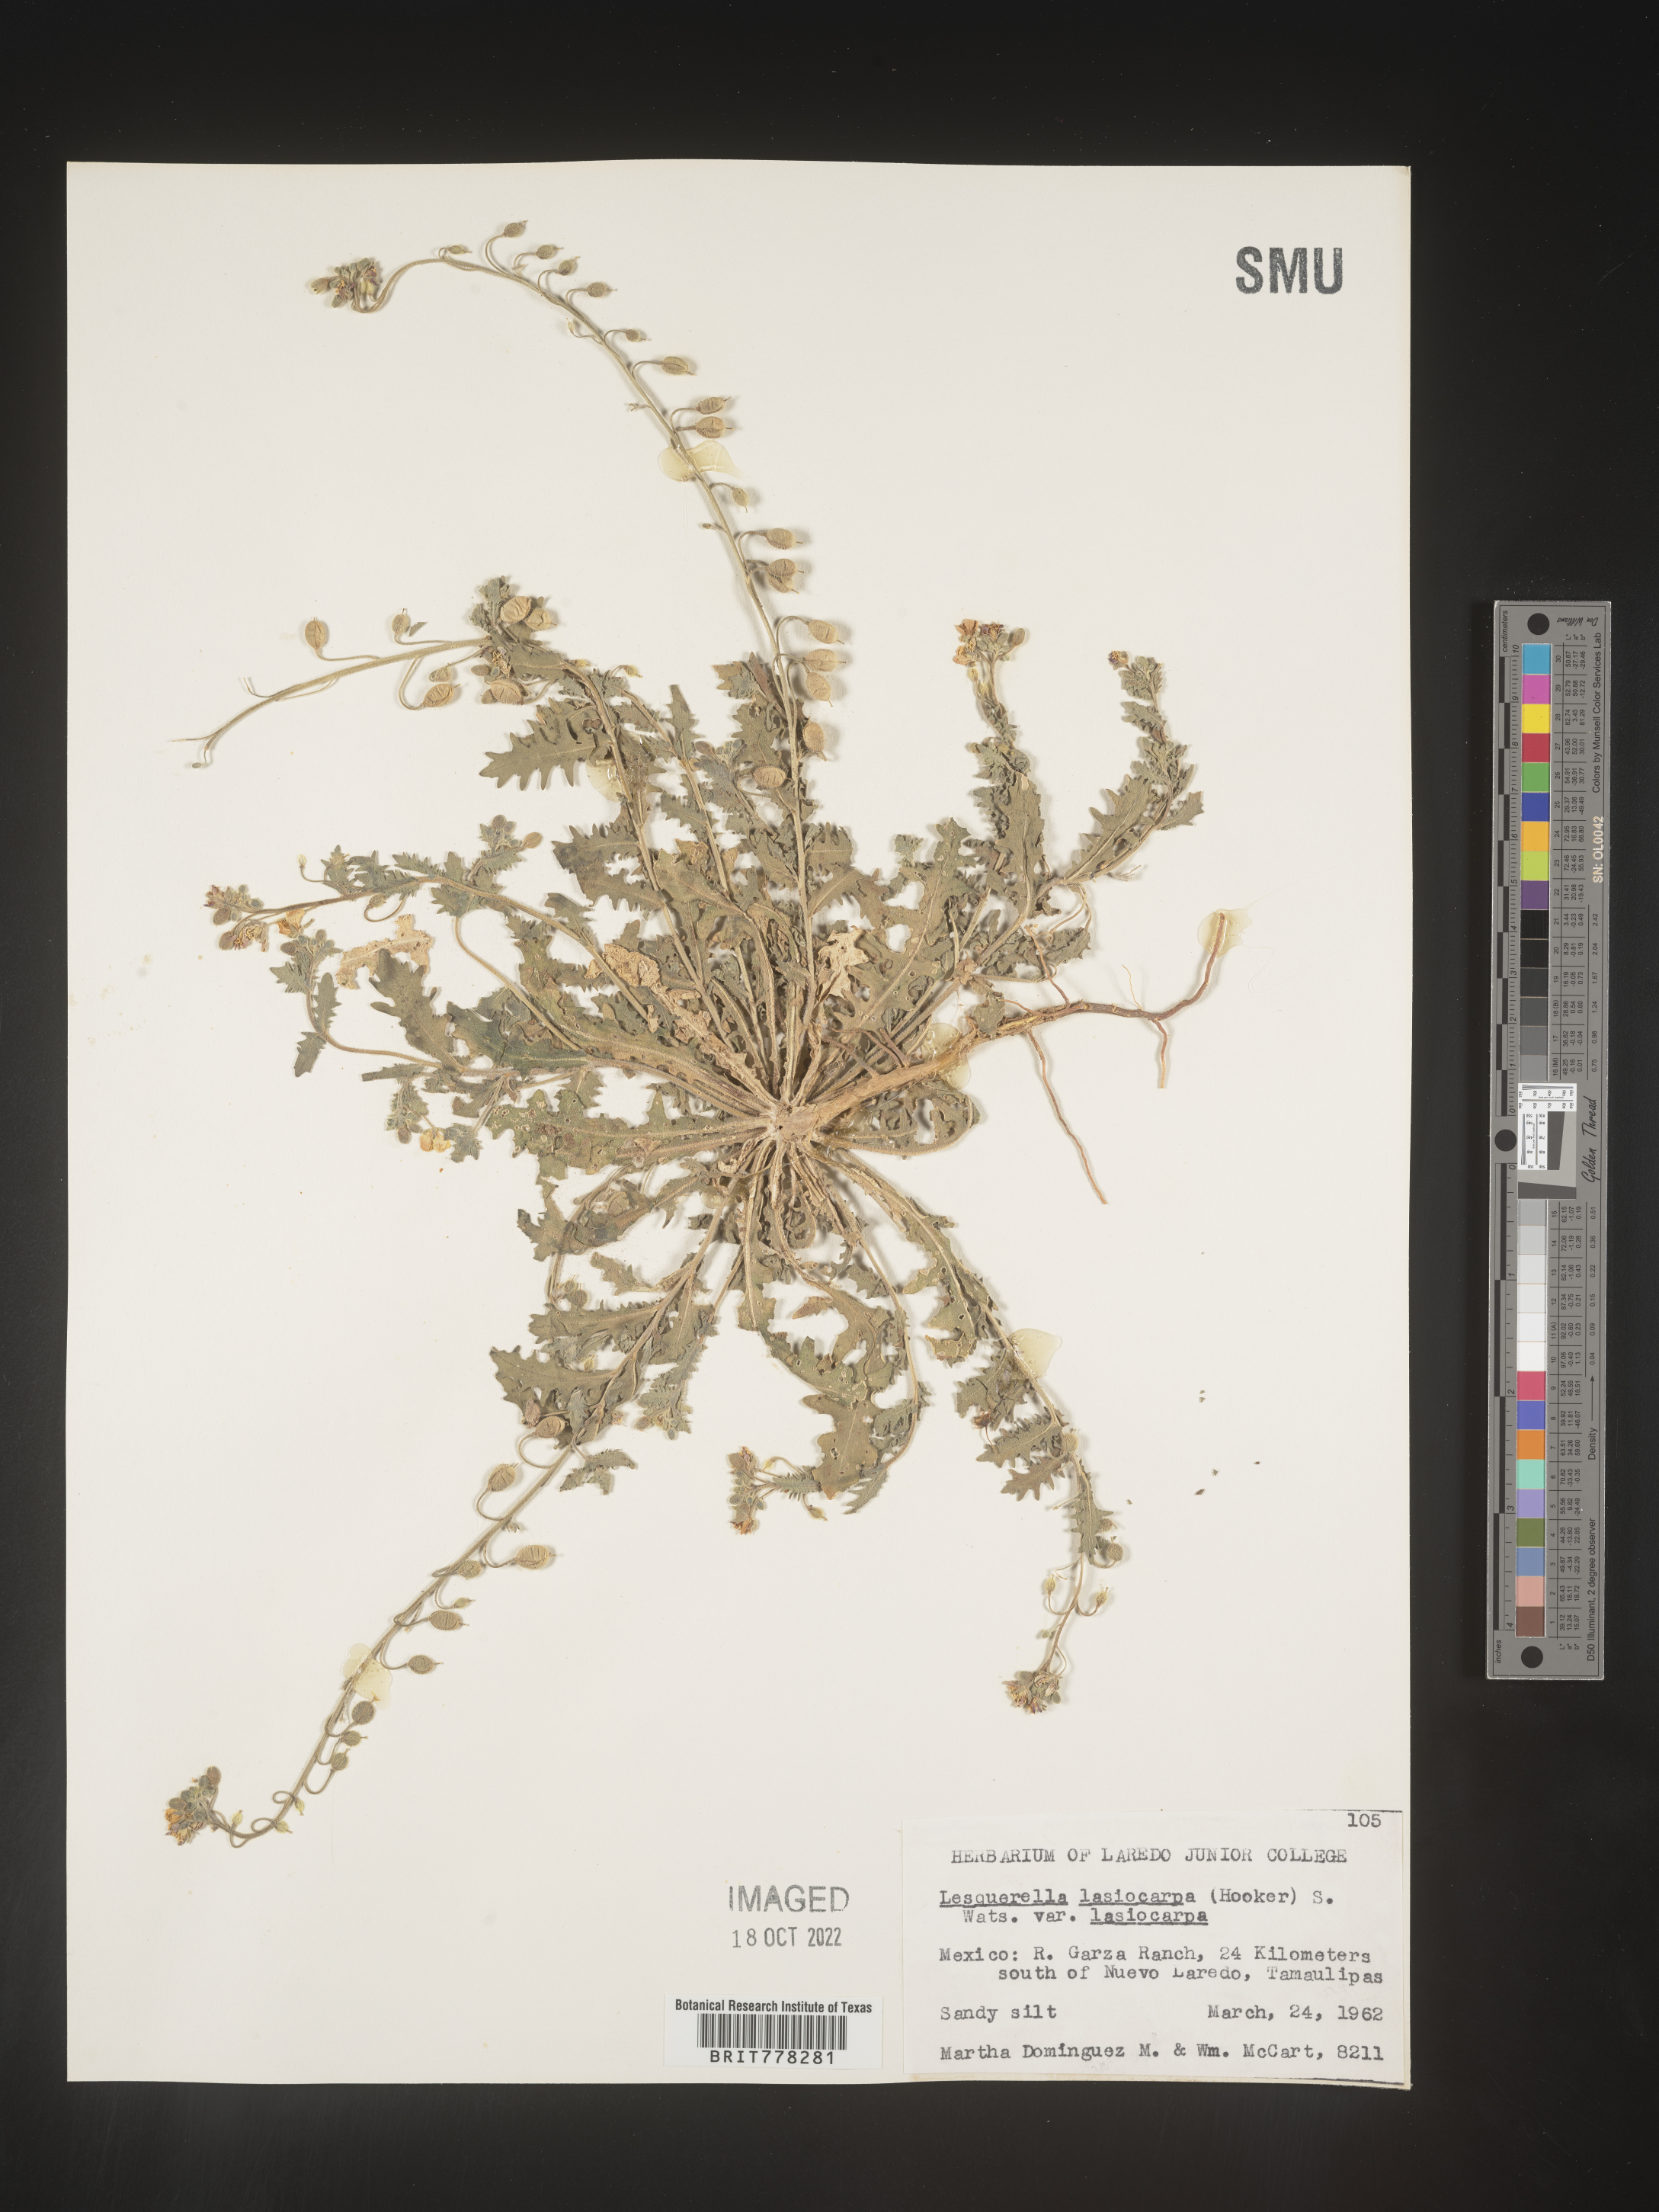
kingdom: Chromista
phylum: Cercozoa
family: Psammonobiotidae
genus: Lesquerella
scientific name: Lesquerella
